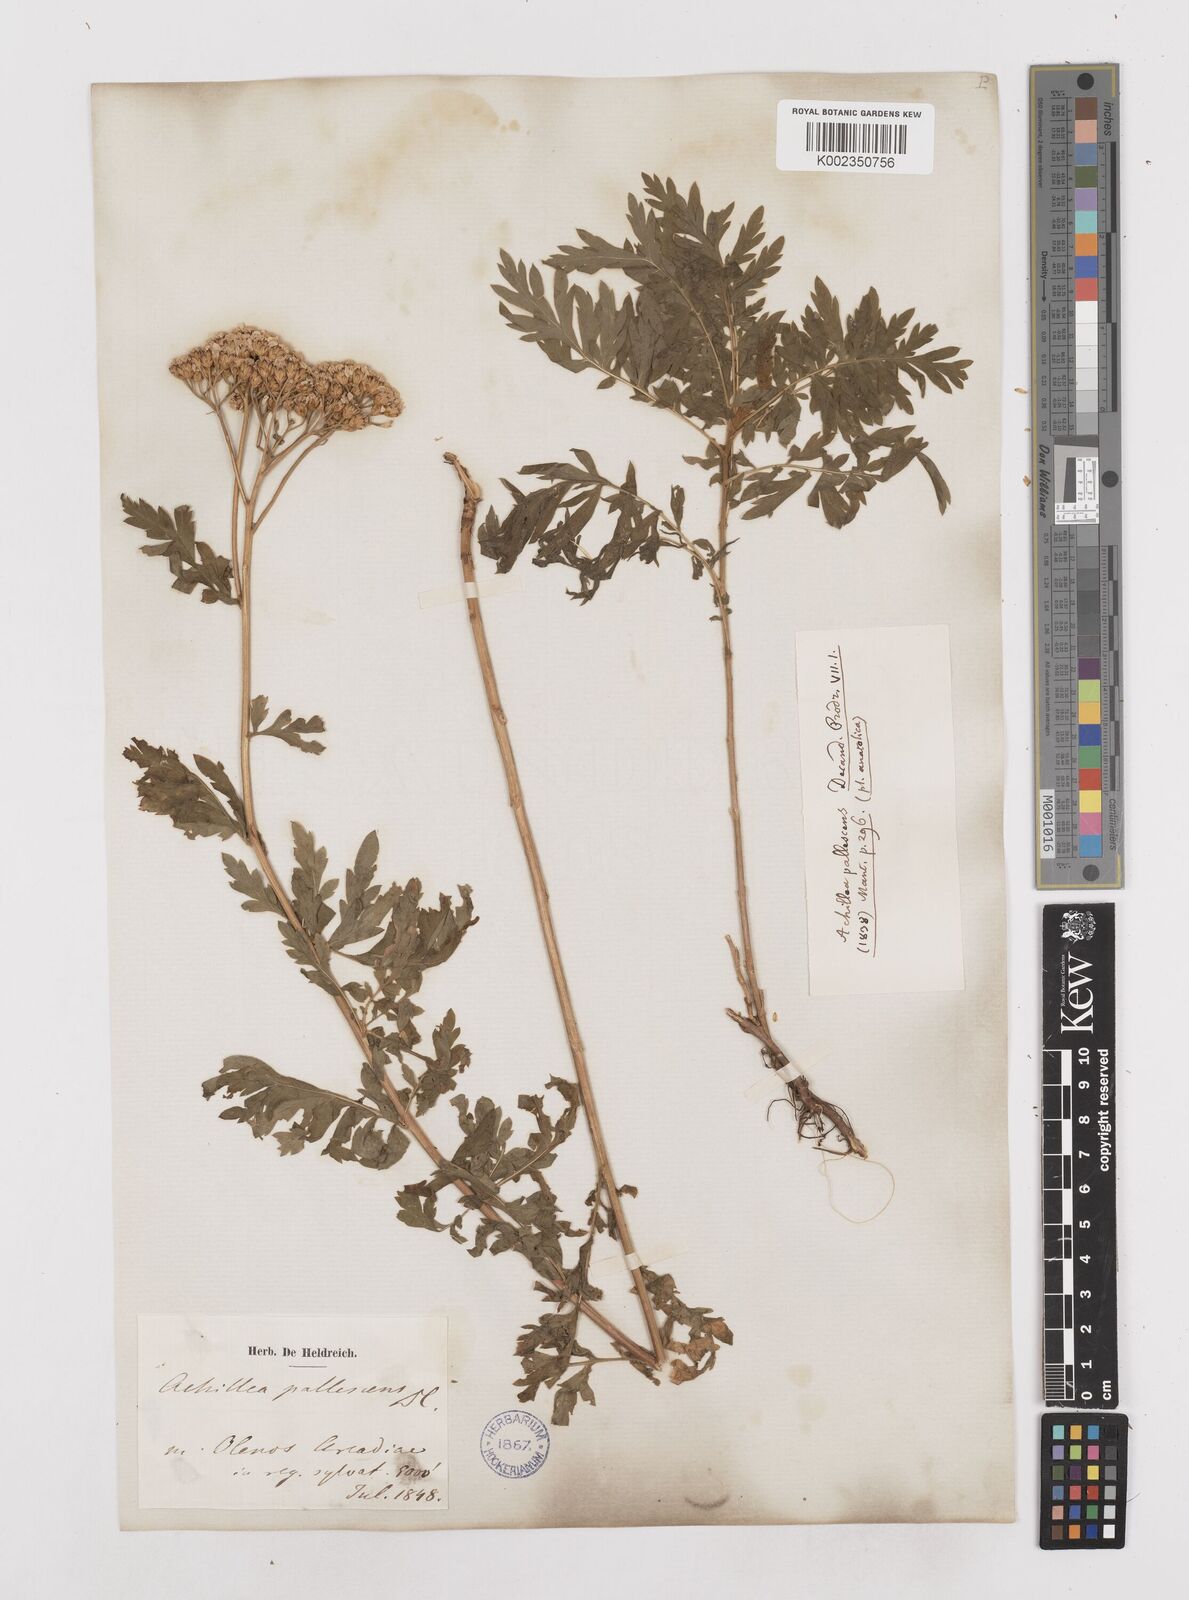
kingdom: Plantae
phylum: Tracheophyta
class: Magnoliopsida
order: Asterales
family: Asteraceae
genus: Achillea
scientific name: Achillea grandifolia
